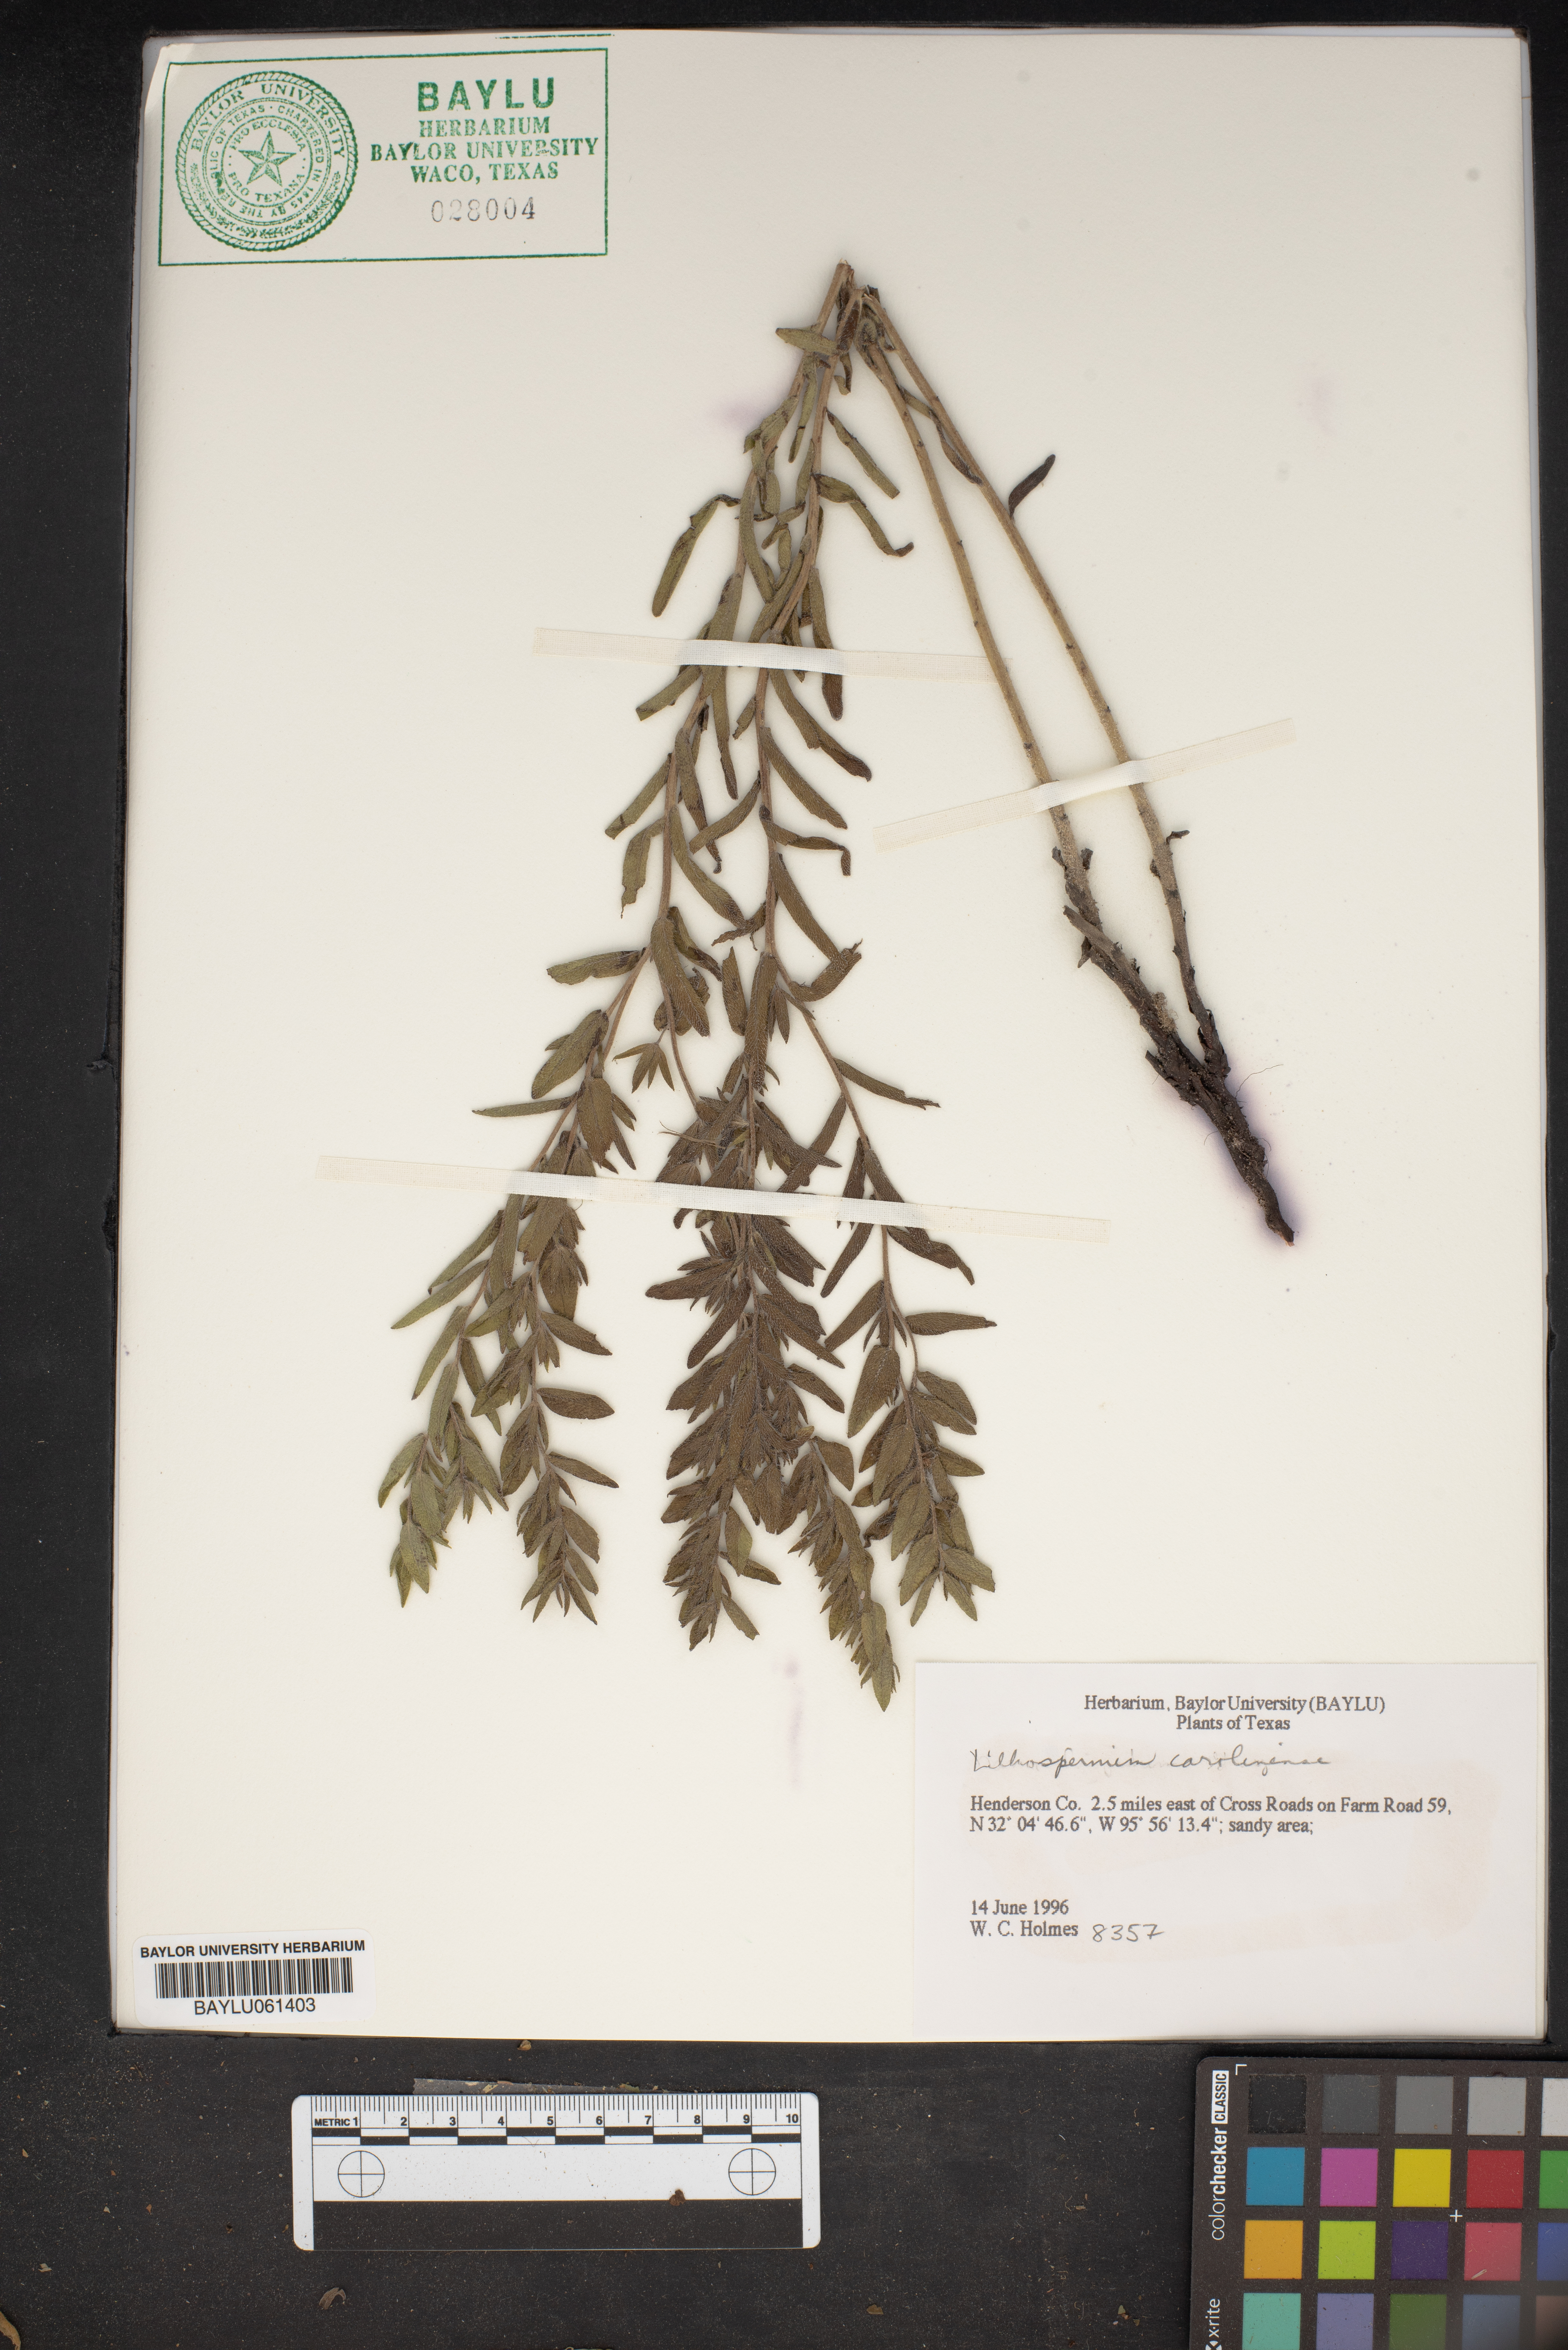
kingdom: Plantae
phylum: Tracheophyta
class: Magnoliopsida
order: Boraginales
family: Boraginaceae
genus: Lithospermum
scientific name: Lithospermum caroliniense
